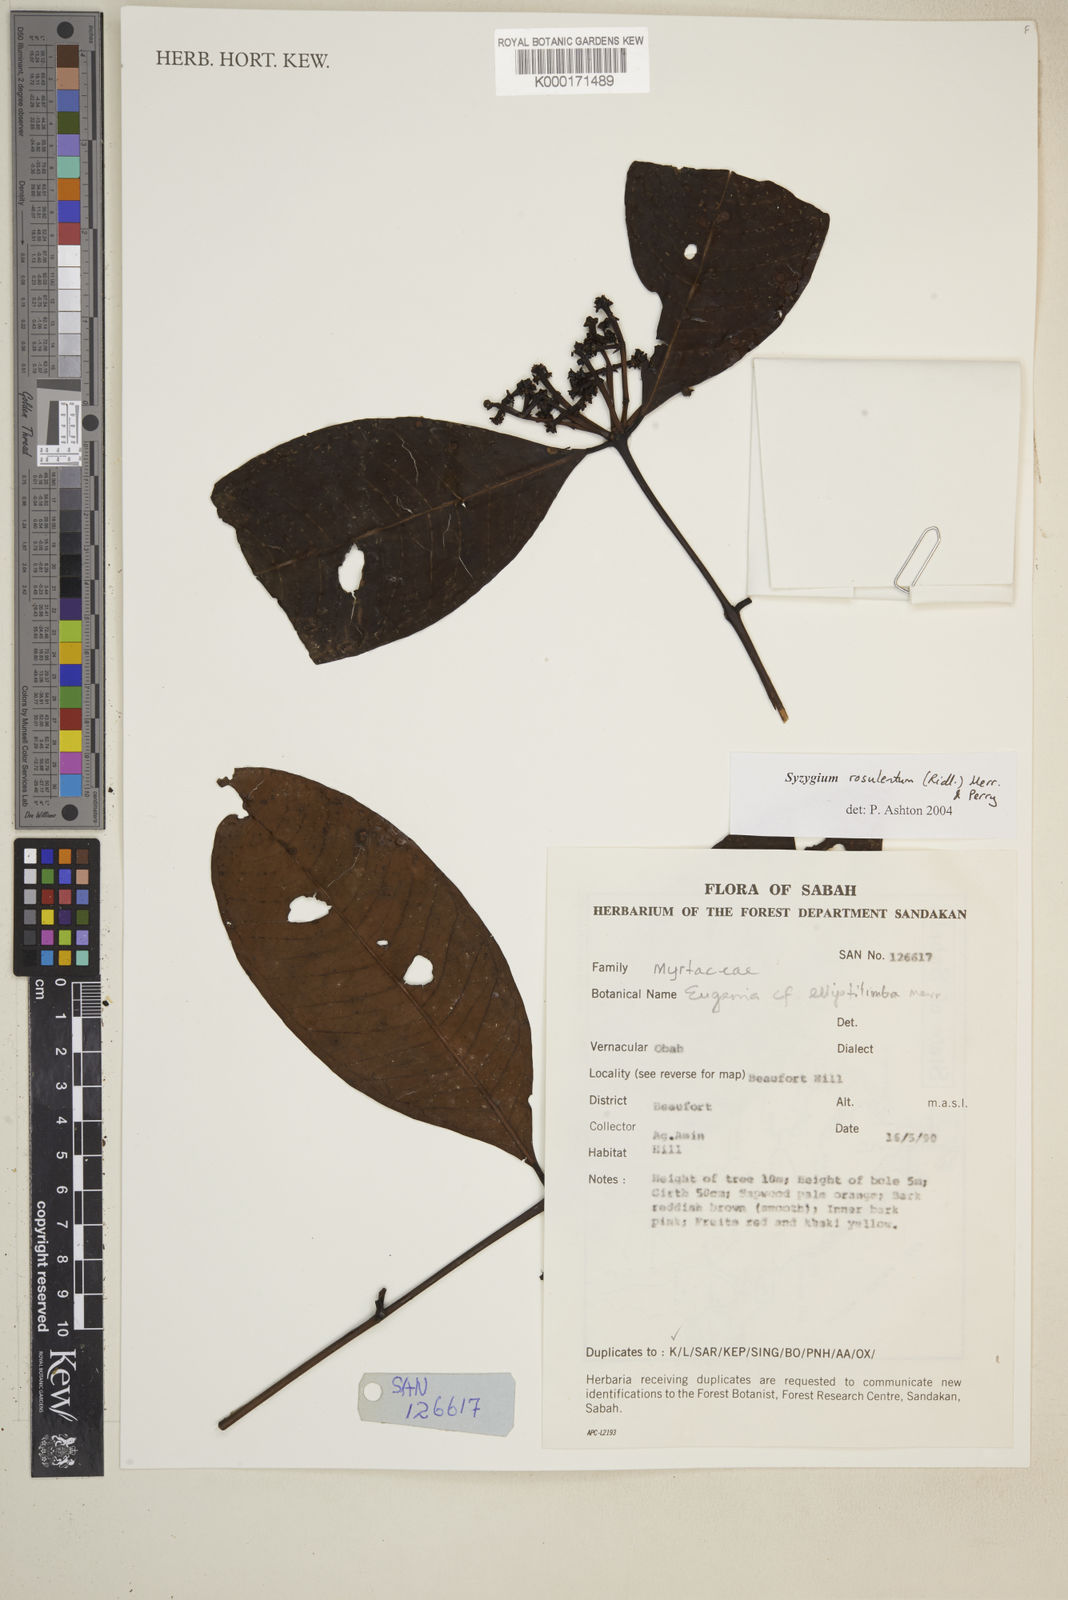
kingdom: Plantae
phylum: Tracheophyta
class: Magnoliopsida
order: Myrtales
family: Myrtaceae
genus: Syzygium
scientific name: Syzygium rosulentum
